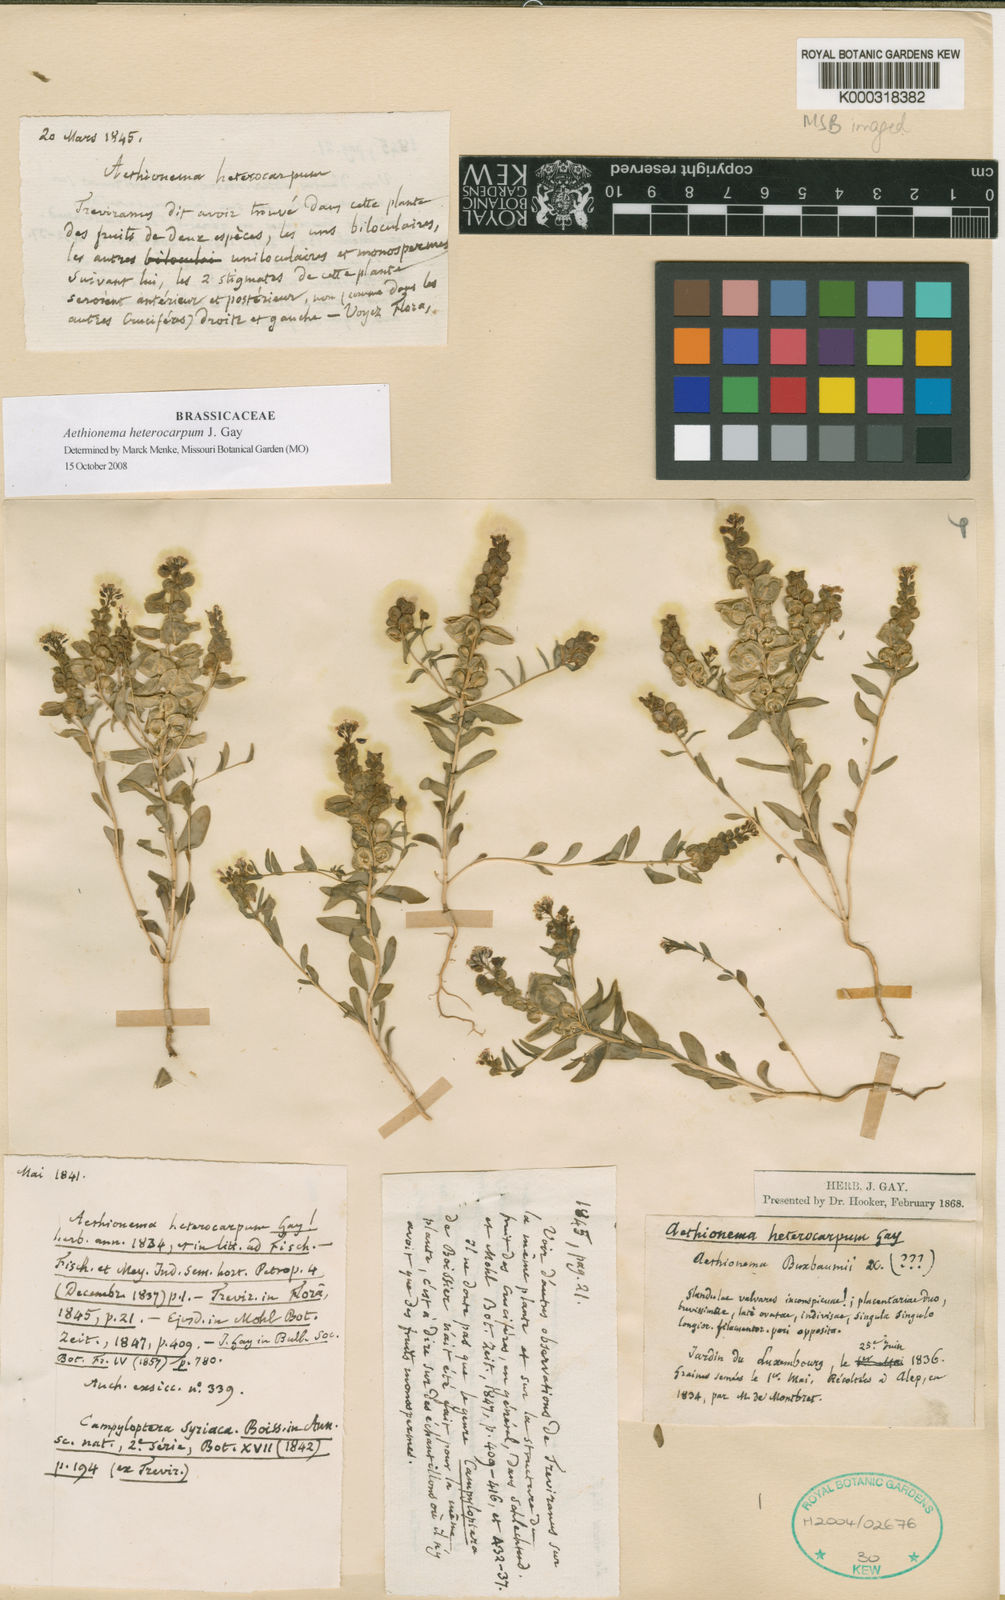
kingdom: Plantae
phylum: Tracheophyta
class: Magnoliopsida
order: Brassicales
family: Brassicaceae
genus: Aethionema
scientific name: Aethionema heterocarpum
